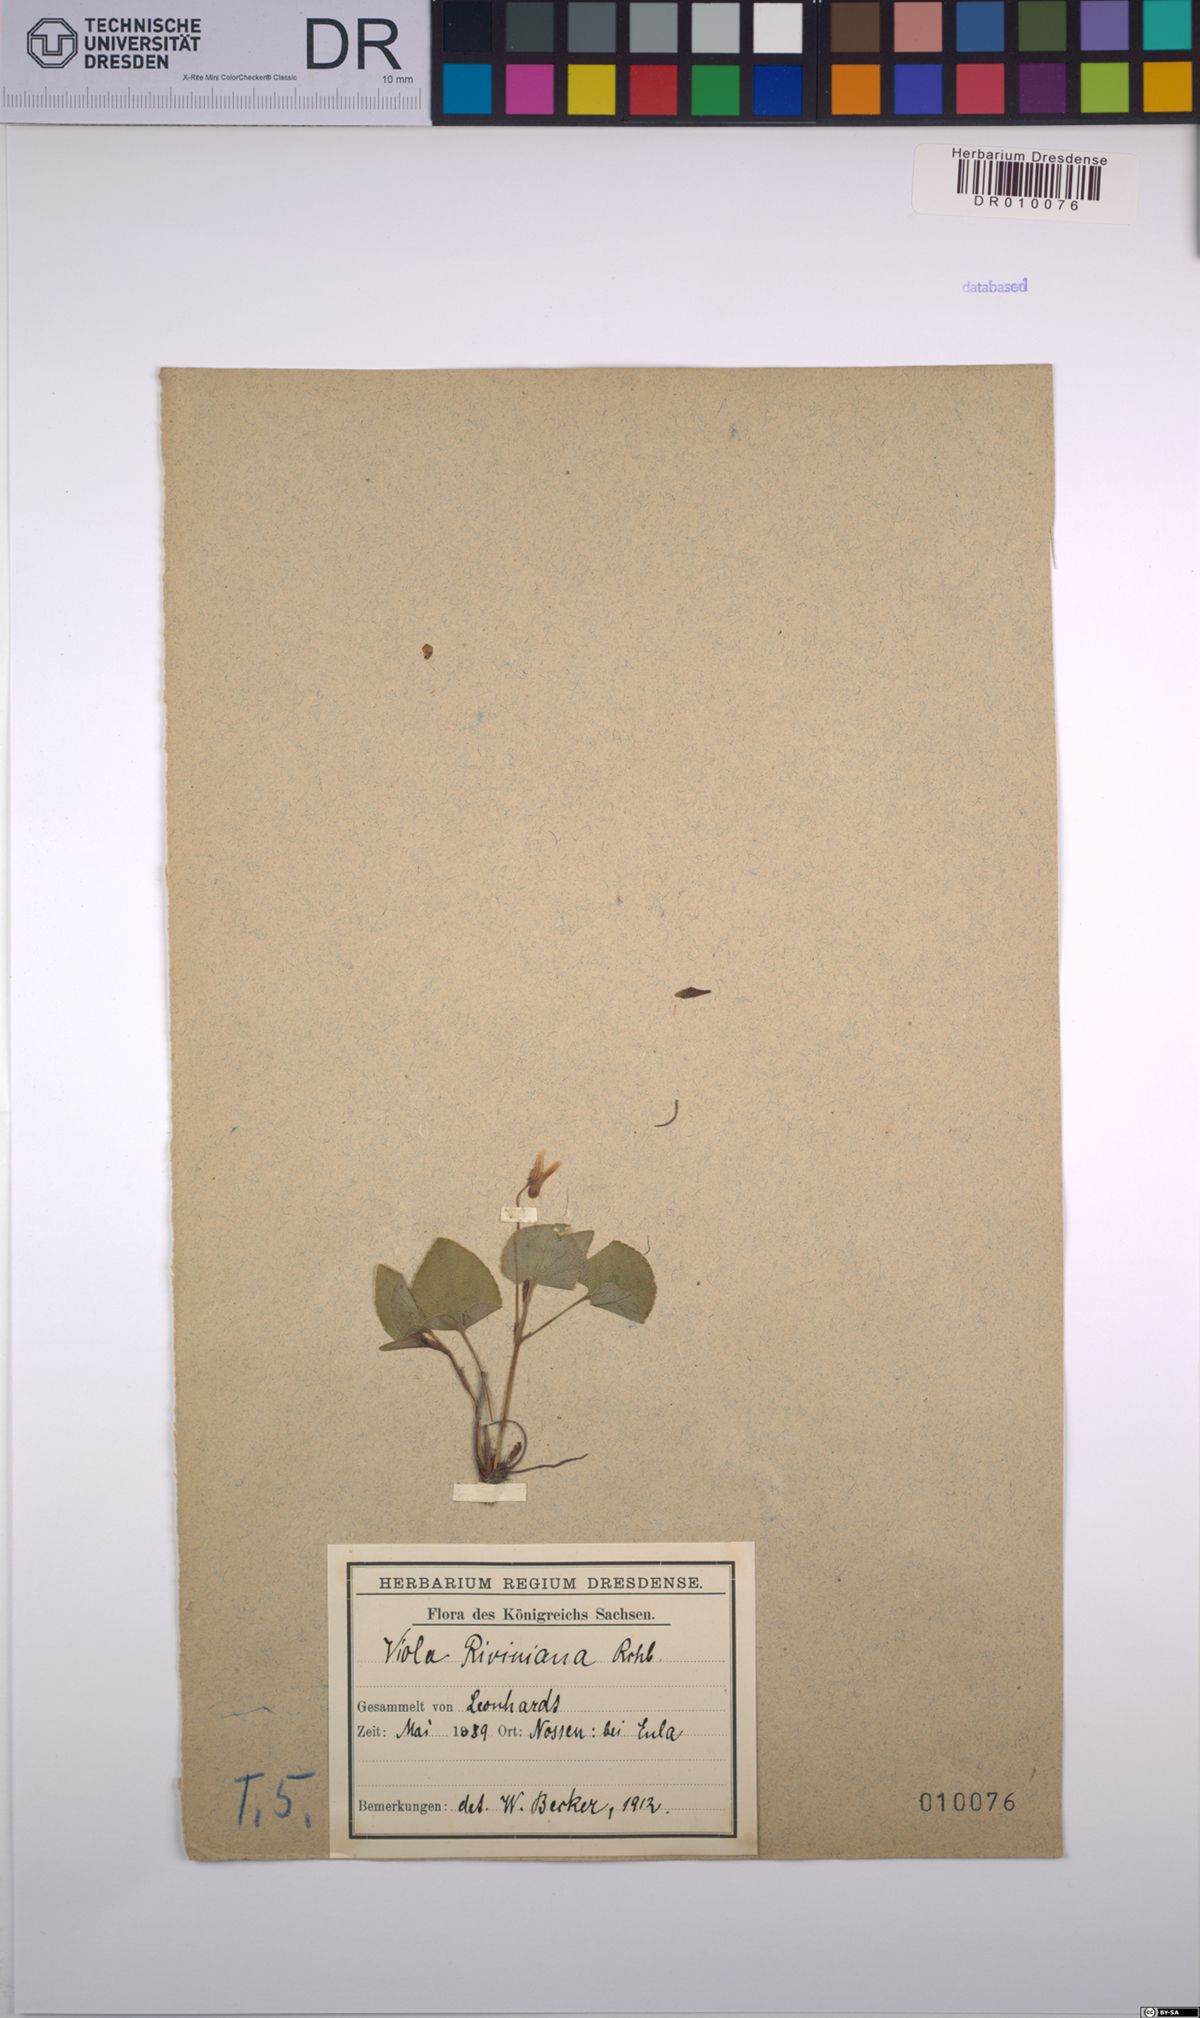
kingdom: Plantae
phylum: Tracheophyta
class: Magnoliopsida
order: Malpighiales
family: Violaceae
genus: Viola
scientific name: Viola riviniana
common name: Common dog-violet
